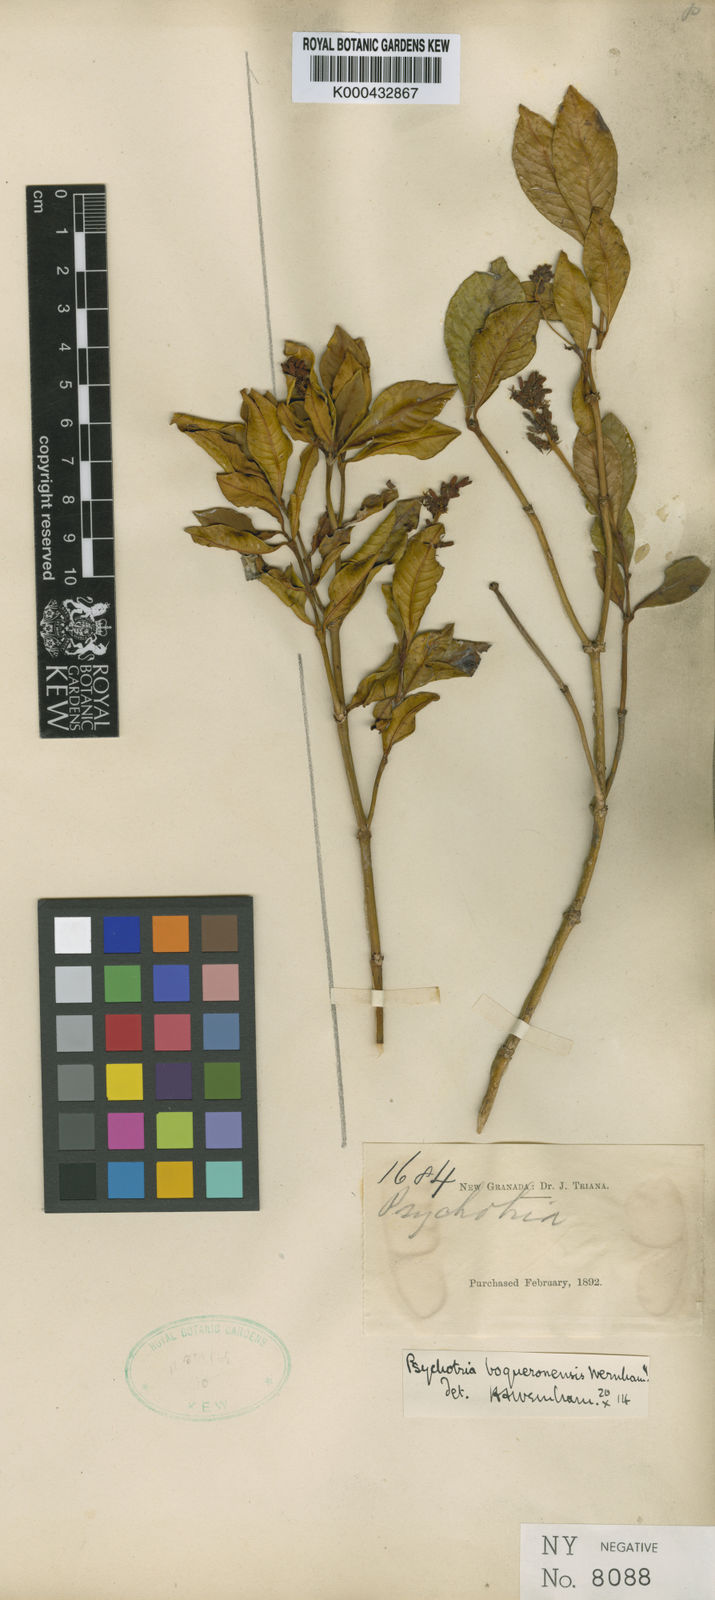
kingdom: Plantae
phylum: Tracheophyta
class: Magnoliopsida
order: Gentianales
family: Rubiaceae
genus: Palicourea
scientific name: Palicourea boqueronensis
